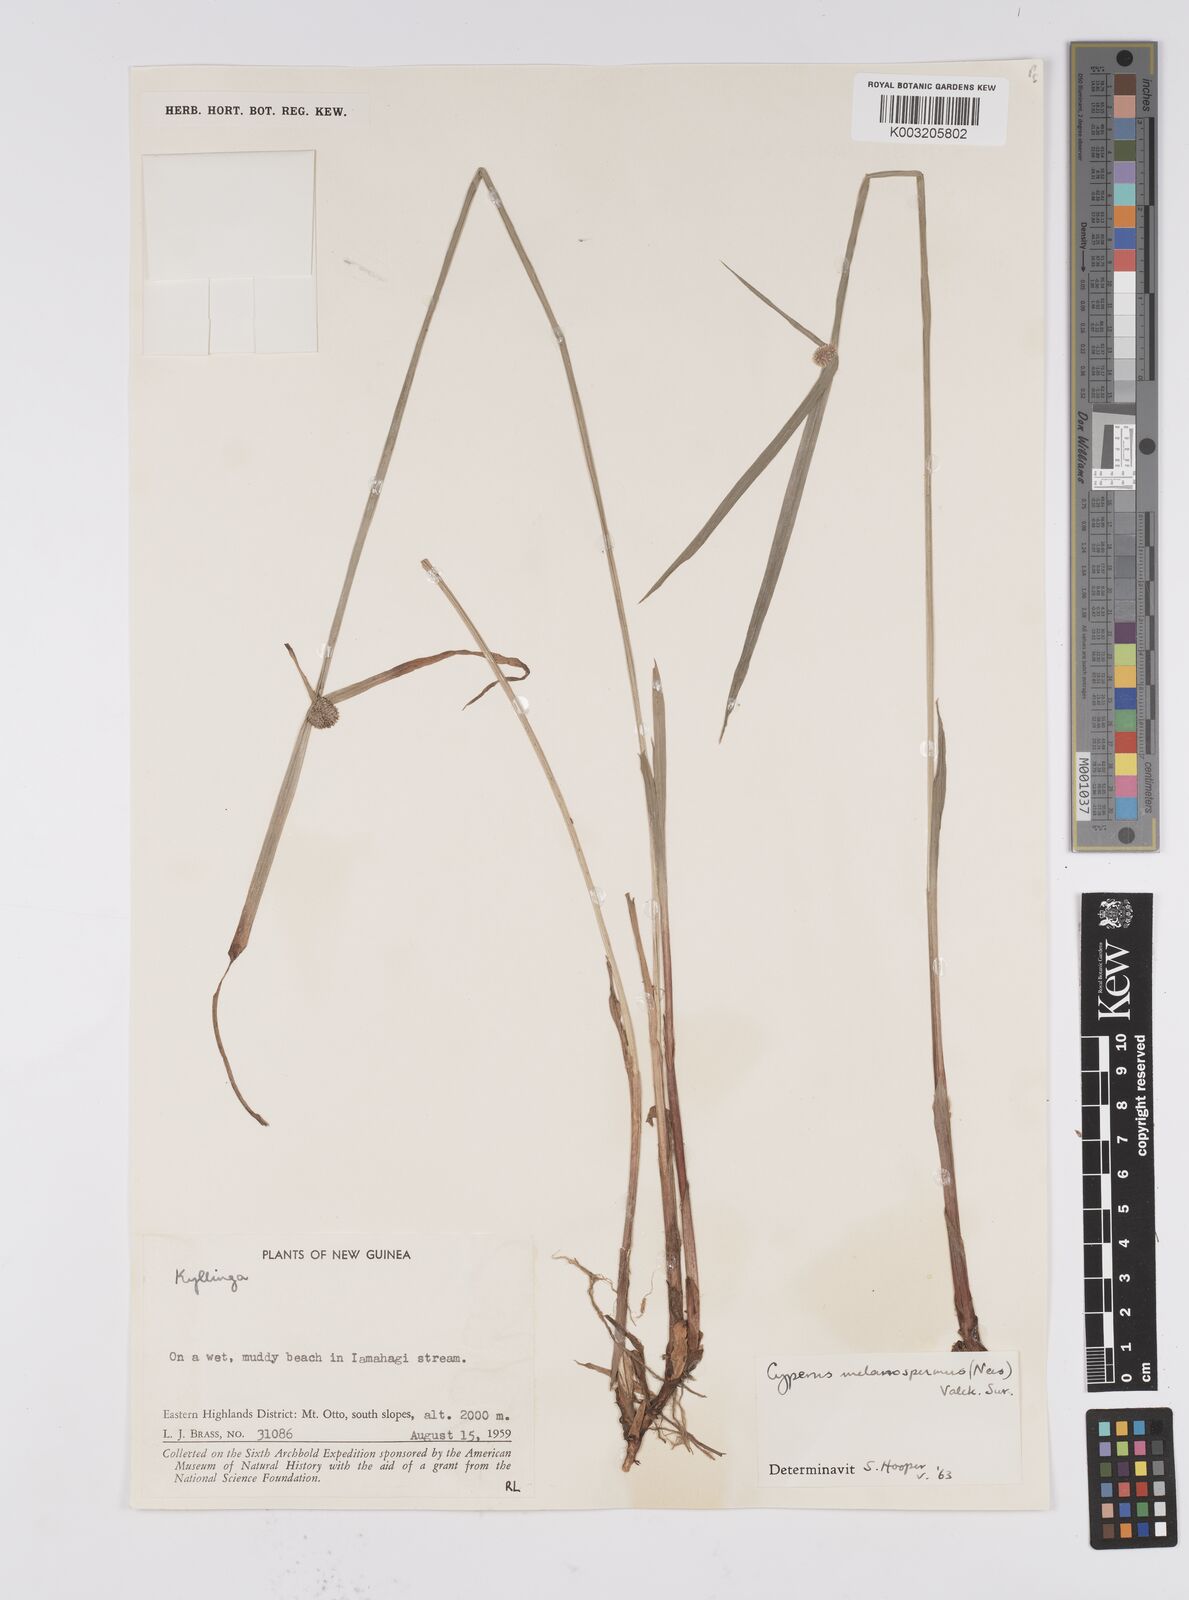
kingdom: Plantae
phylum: Tracheophyta
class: Liliopsida
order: Poales
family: Cyperaceae
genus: Cyperus
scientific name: Cyperus melanospermus
